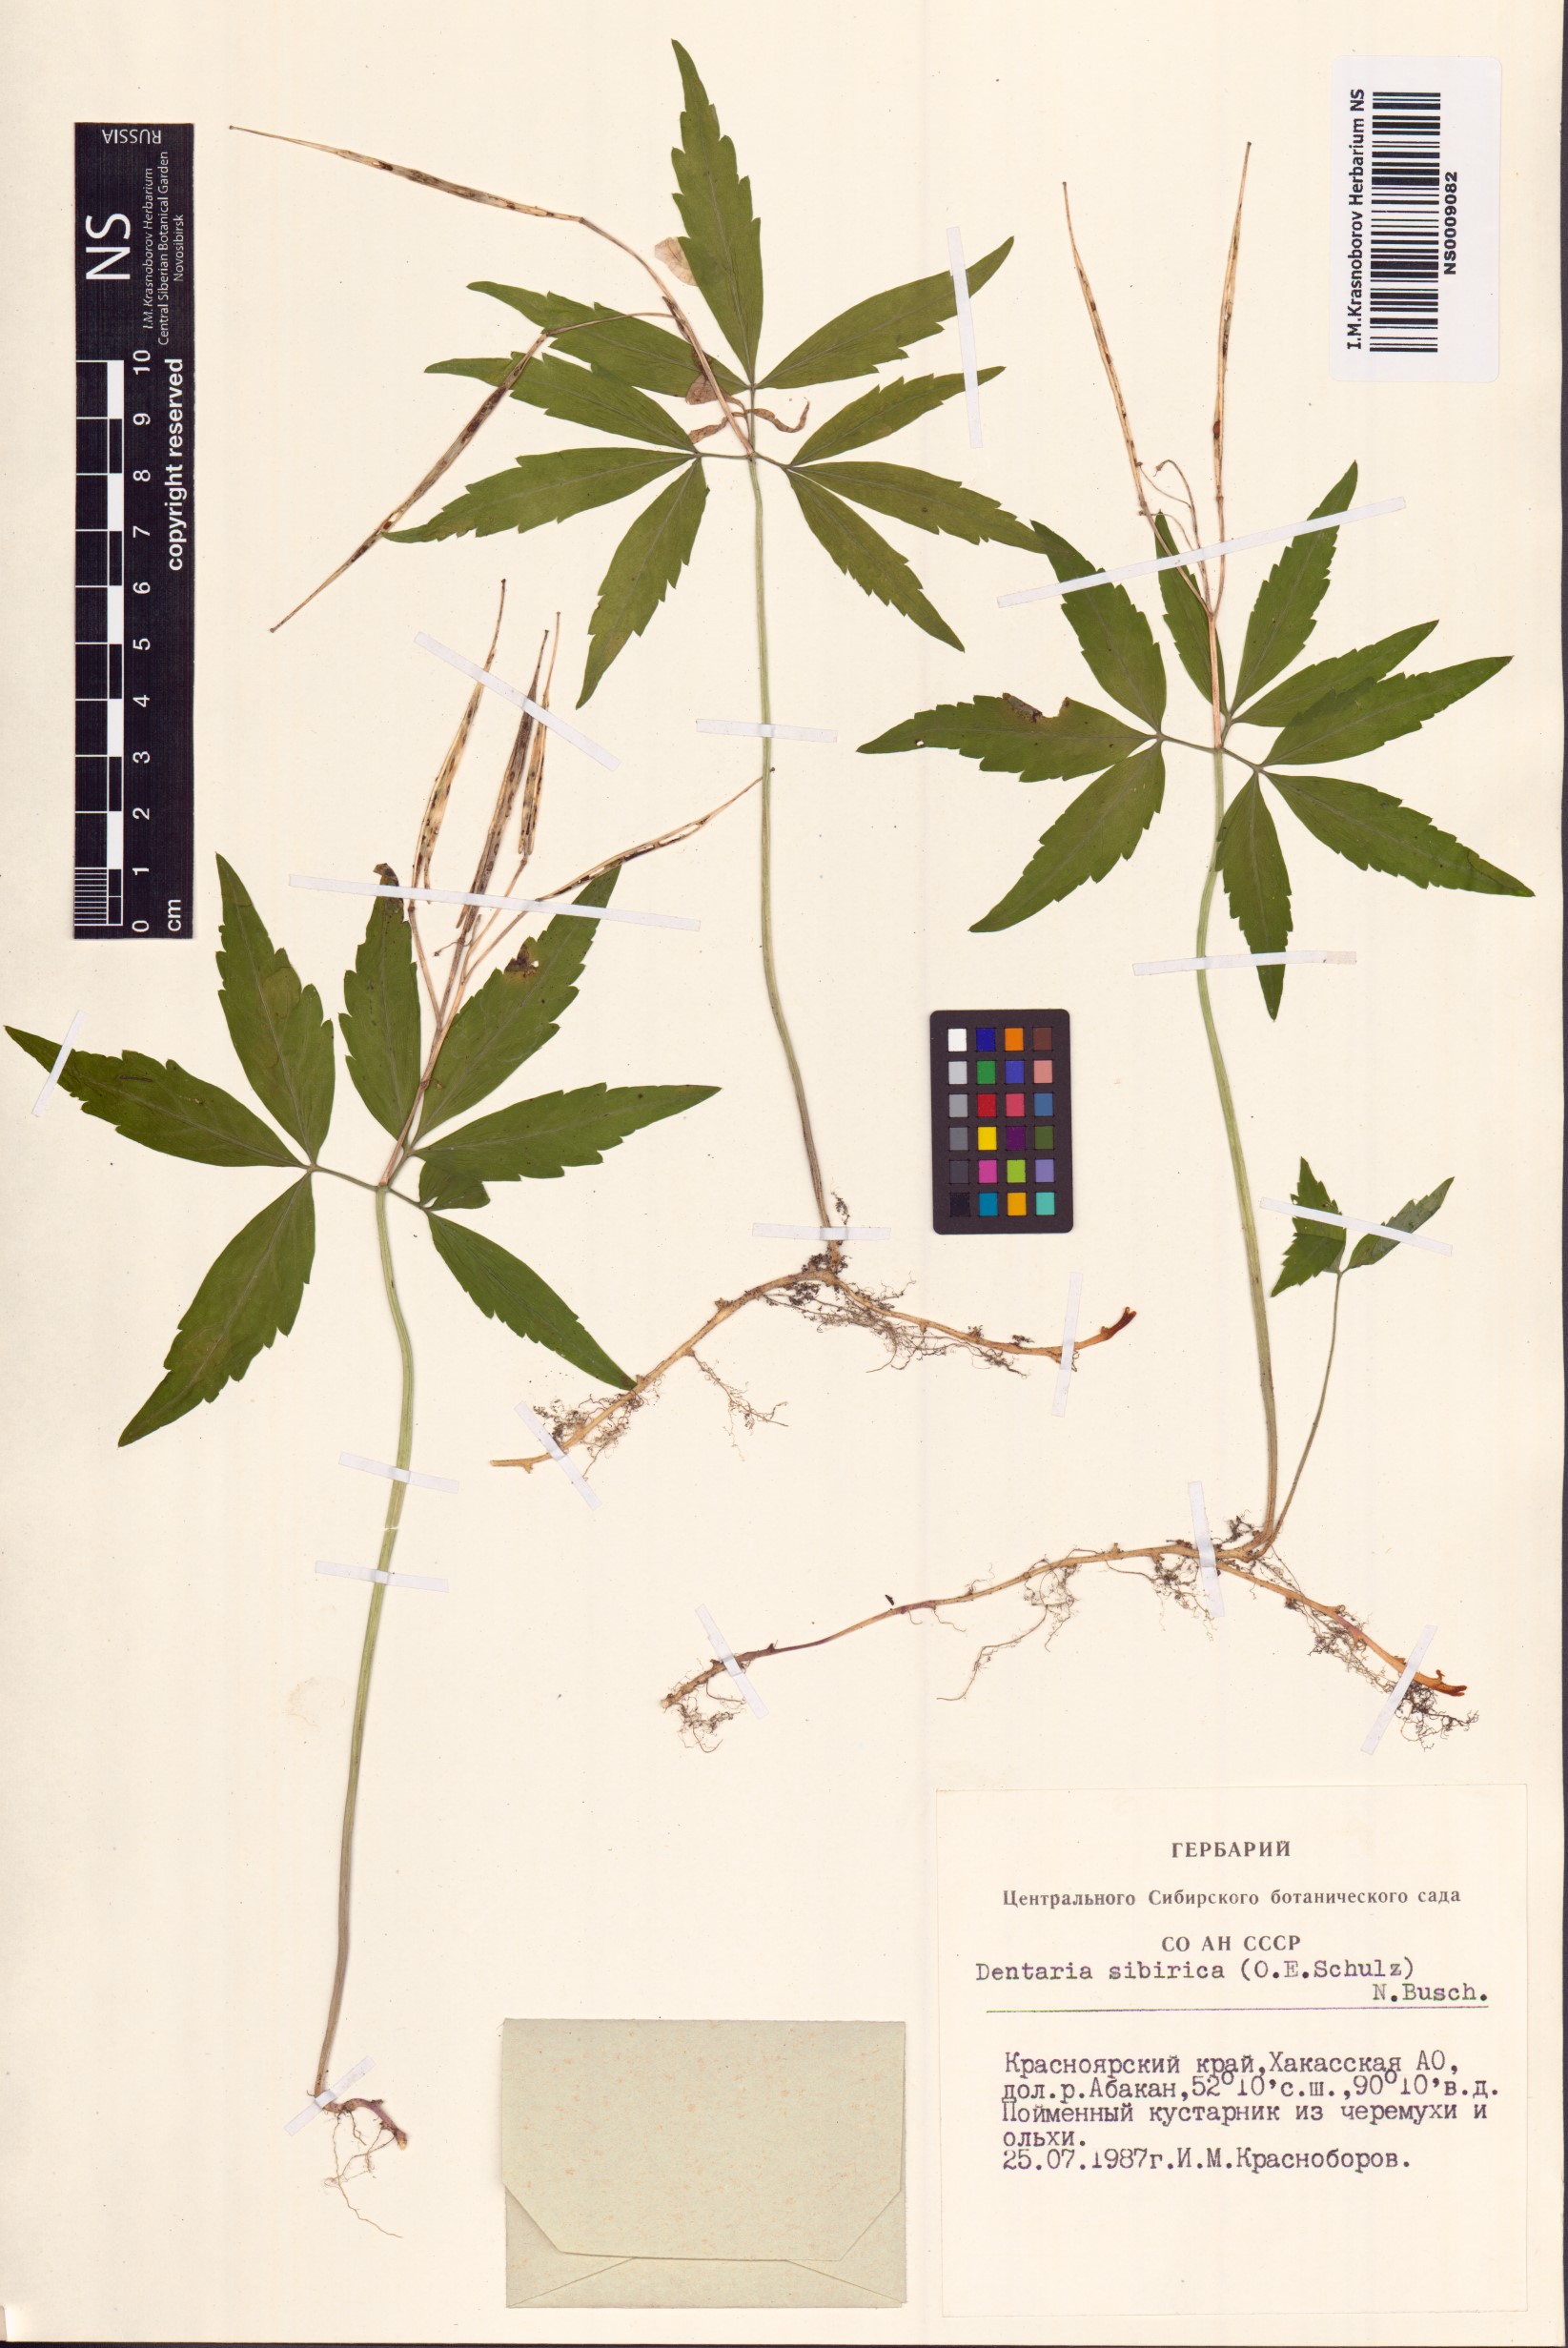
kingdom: Plantae
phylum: Tracheophyta
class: Magnoliopsida
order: Brassicales
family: Brassicaceae
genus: Cardamine
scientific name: Cardamine glanduligera
